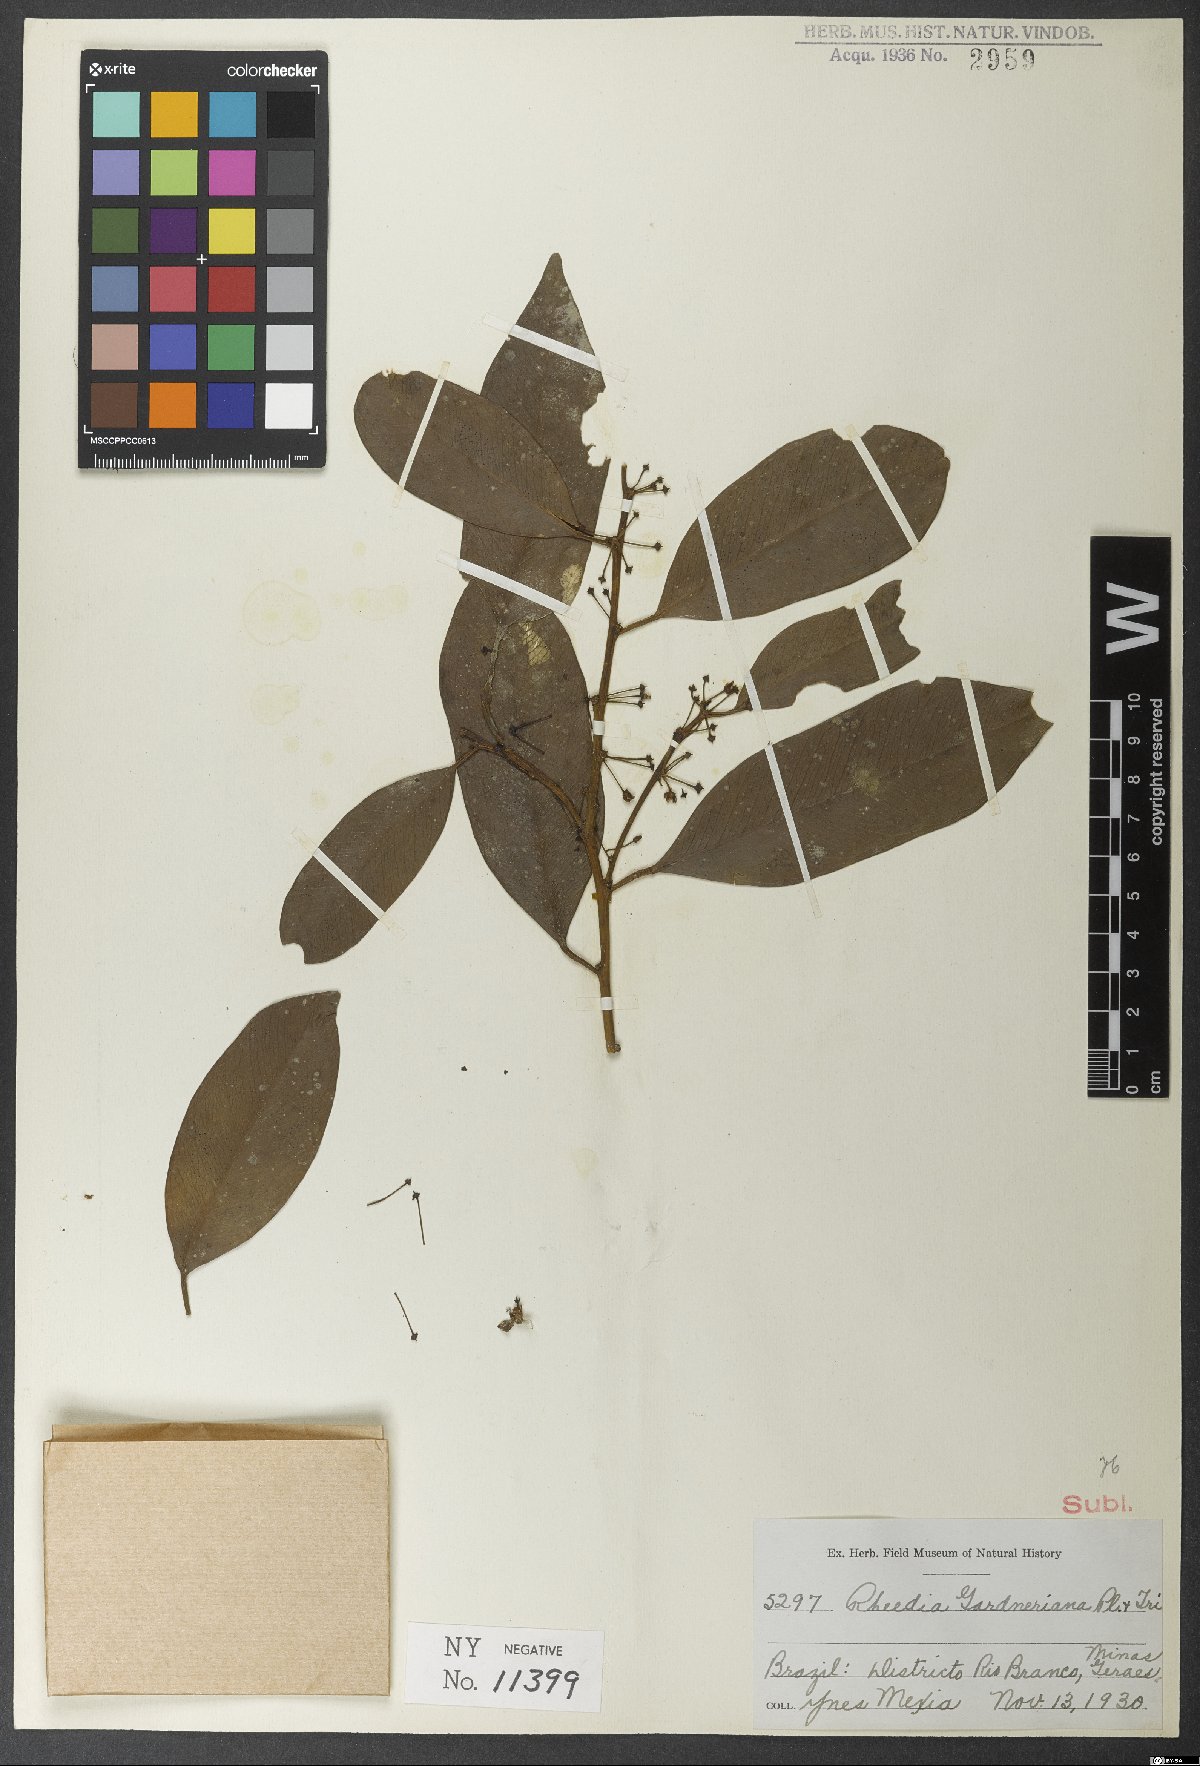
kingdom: Plantae
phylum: Tracheophyta
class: Magnoliopsida
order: Malpighiales
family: Clusiaceae
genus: Garcinia
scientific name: Garcinia gardneriana
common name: Achacha
